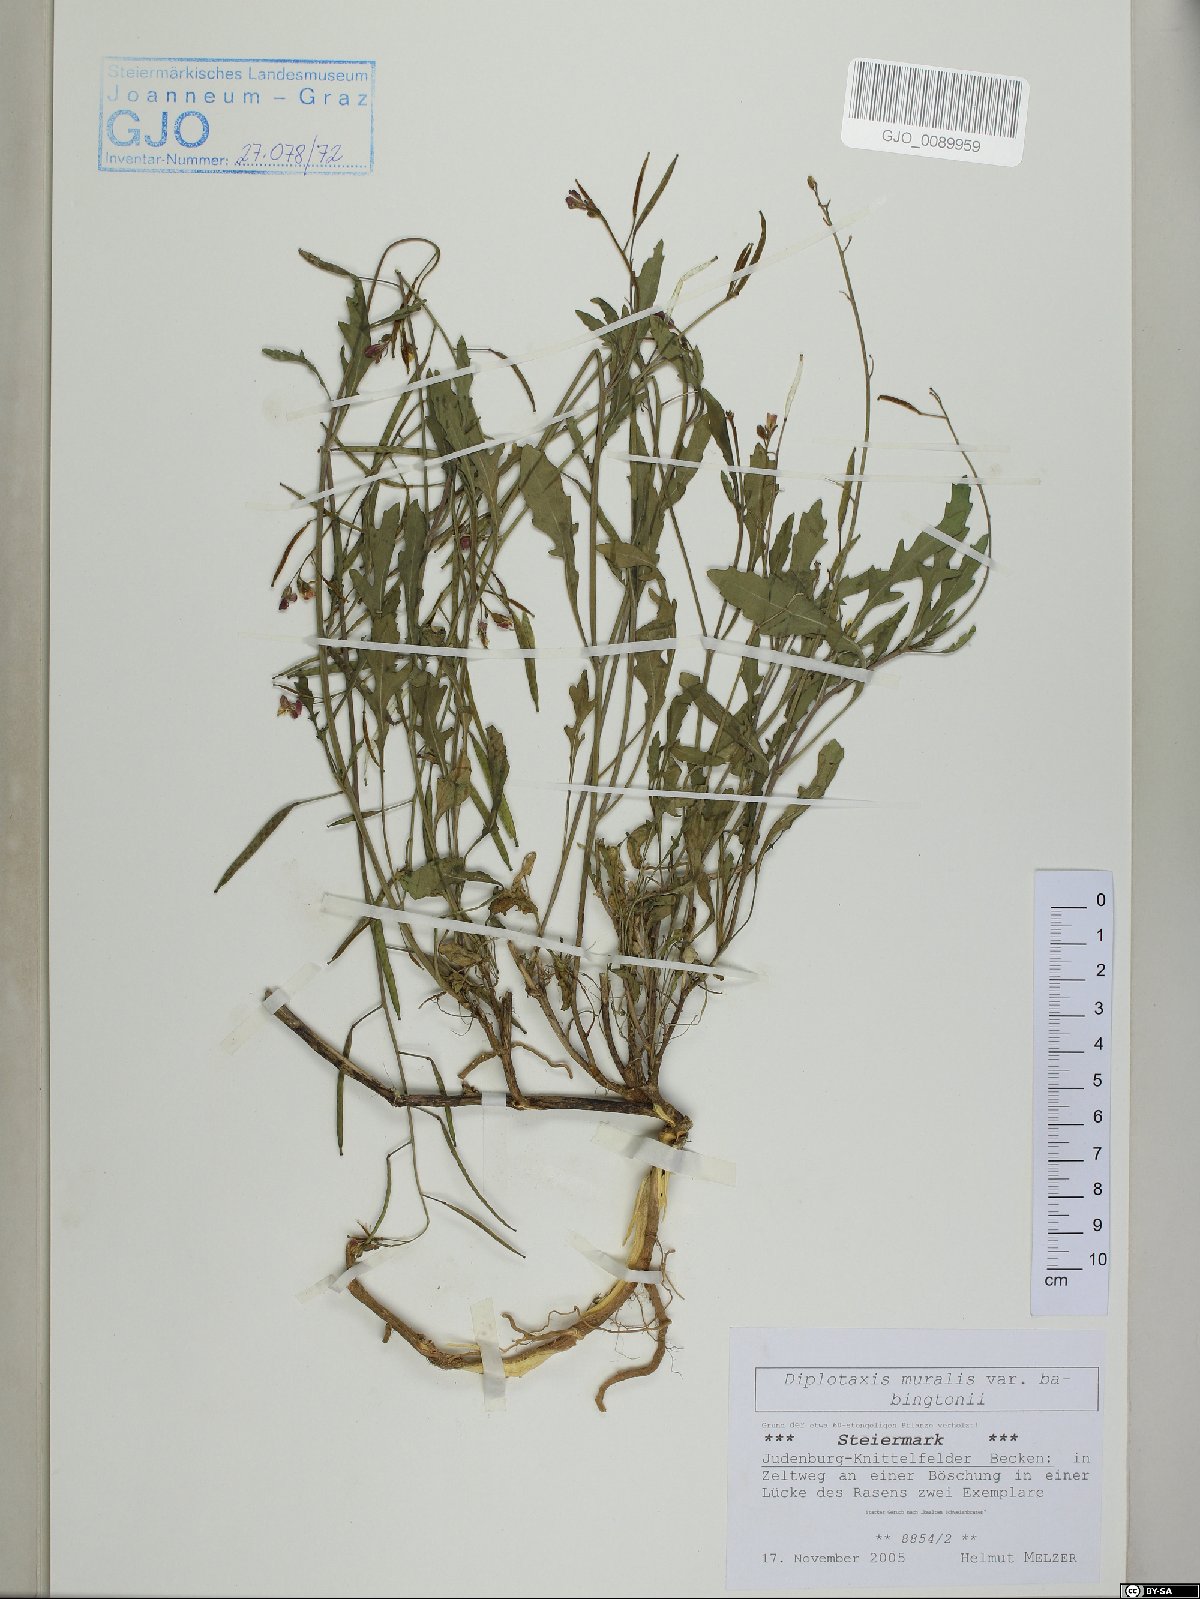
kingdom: Plantae
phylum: Tracheophyta
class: Magnoliopsida
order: Brassicales
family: Brassicaceae
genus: Diplotaxis
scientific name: Diplotaxis muralis
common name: Annual wall-rocket
